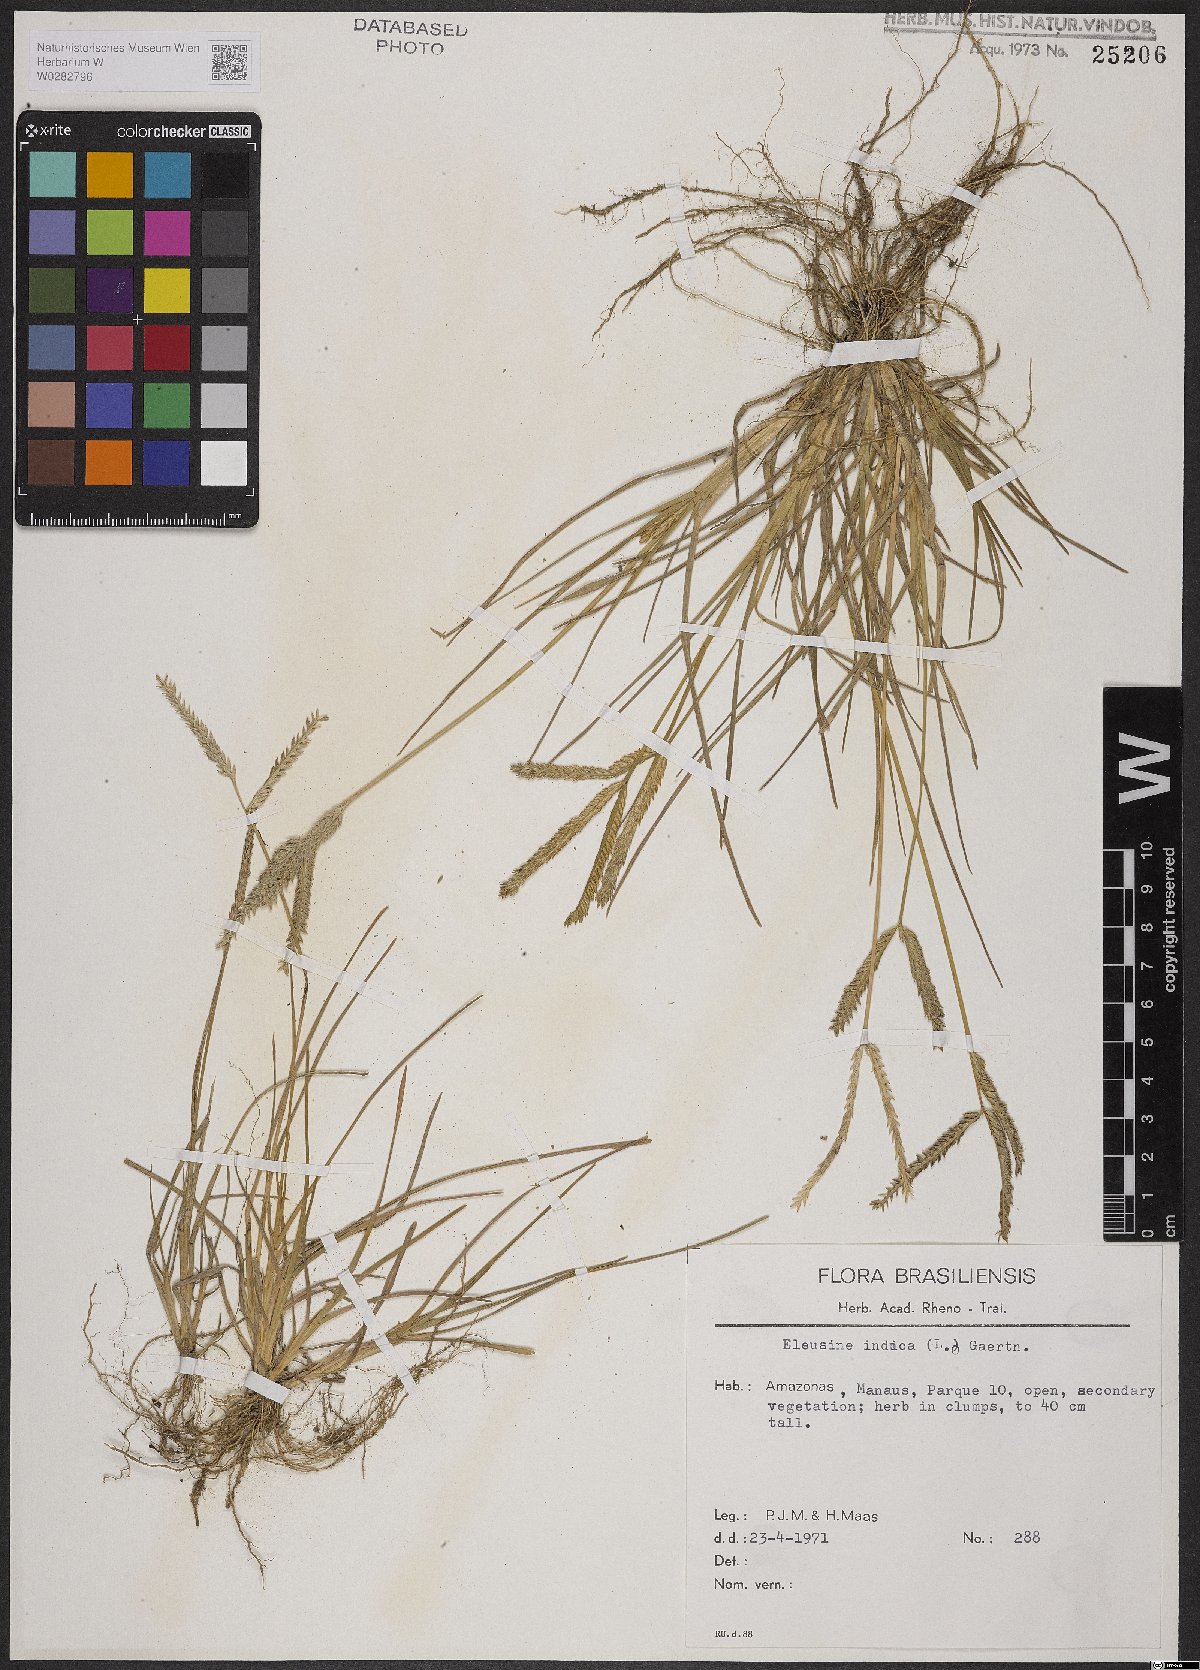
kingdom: Plantae
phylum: Tracheophyta
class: Liliopsida
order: Poales
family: Poaceae
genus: Eleusine
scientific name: Eleusine indica
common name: Yard-grass
